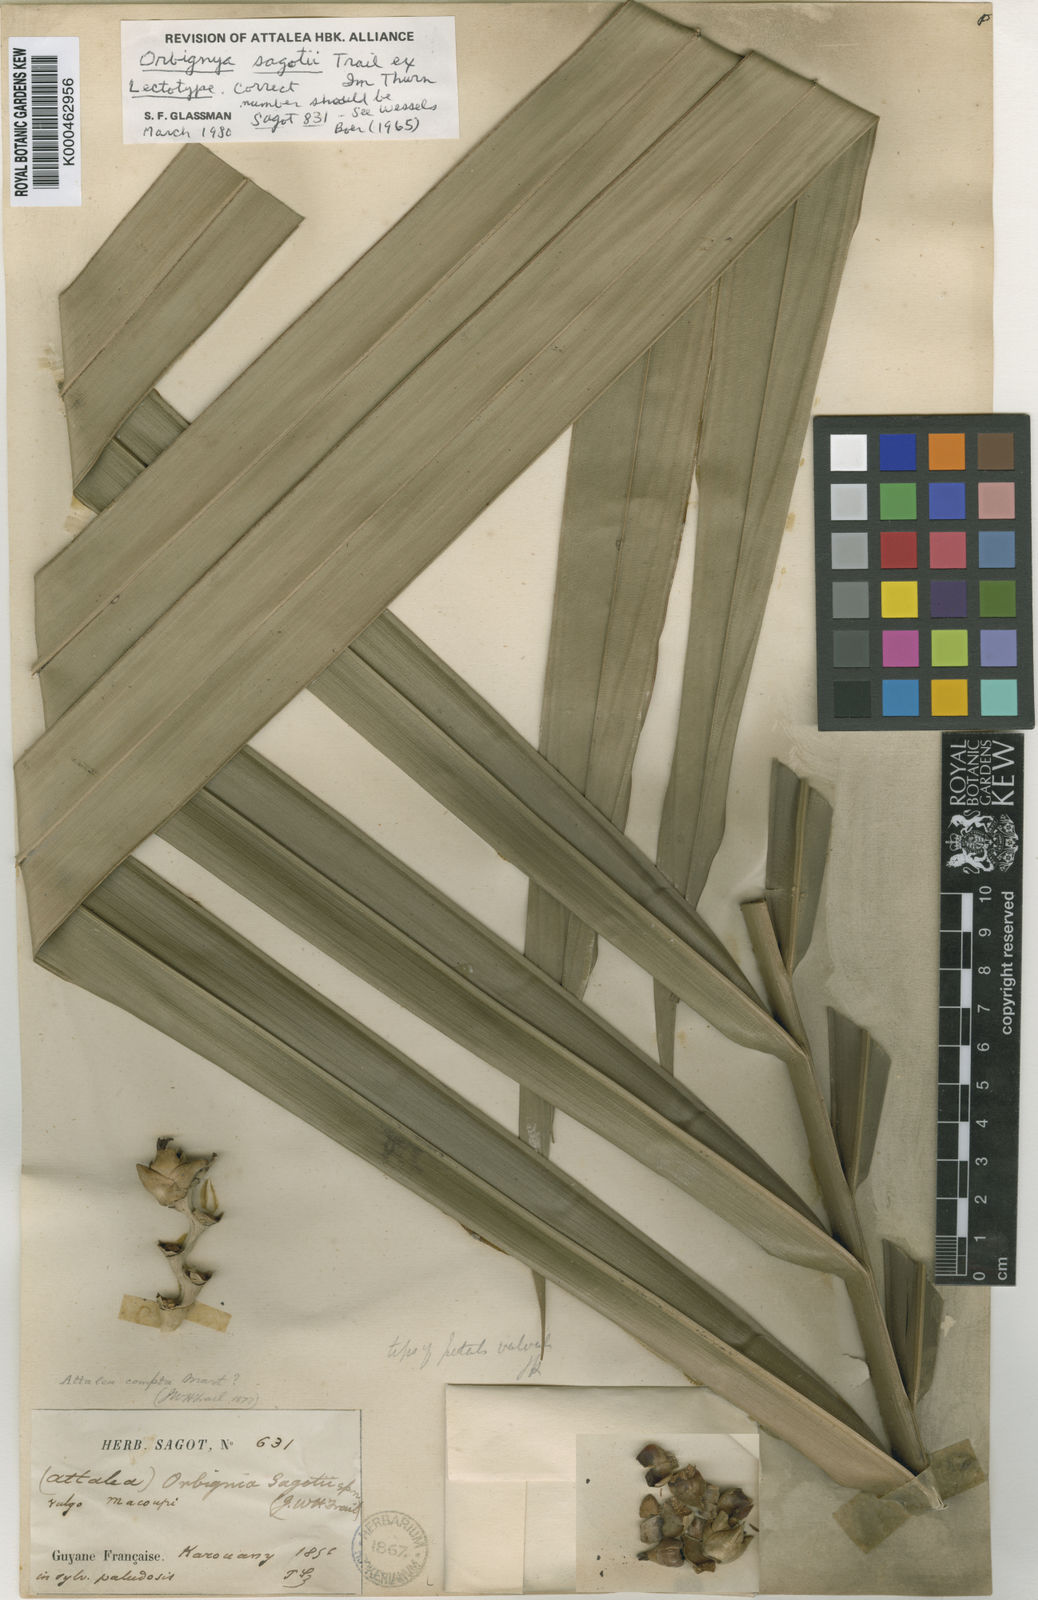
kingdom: Plantae
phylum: Tracheophyta
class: Liliopsida
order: Arecales
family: Arecaceae
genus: Attalea
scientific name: Attalea microcarpa
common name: Mountain maripa
